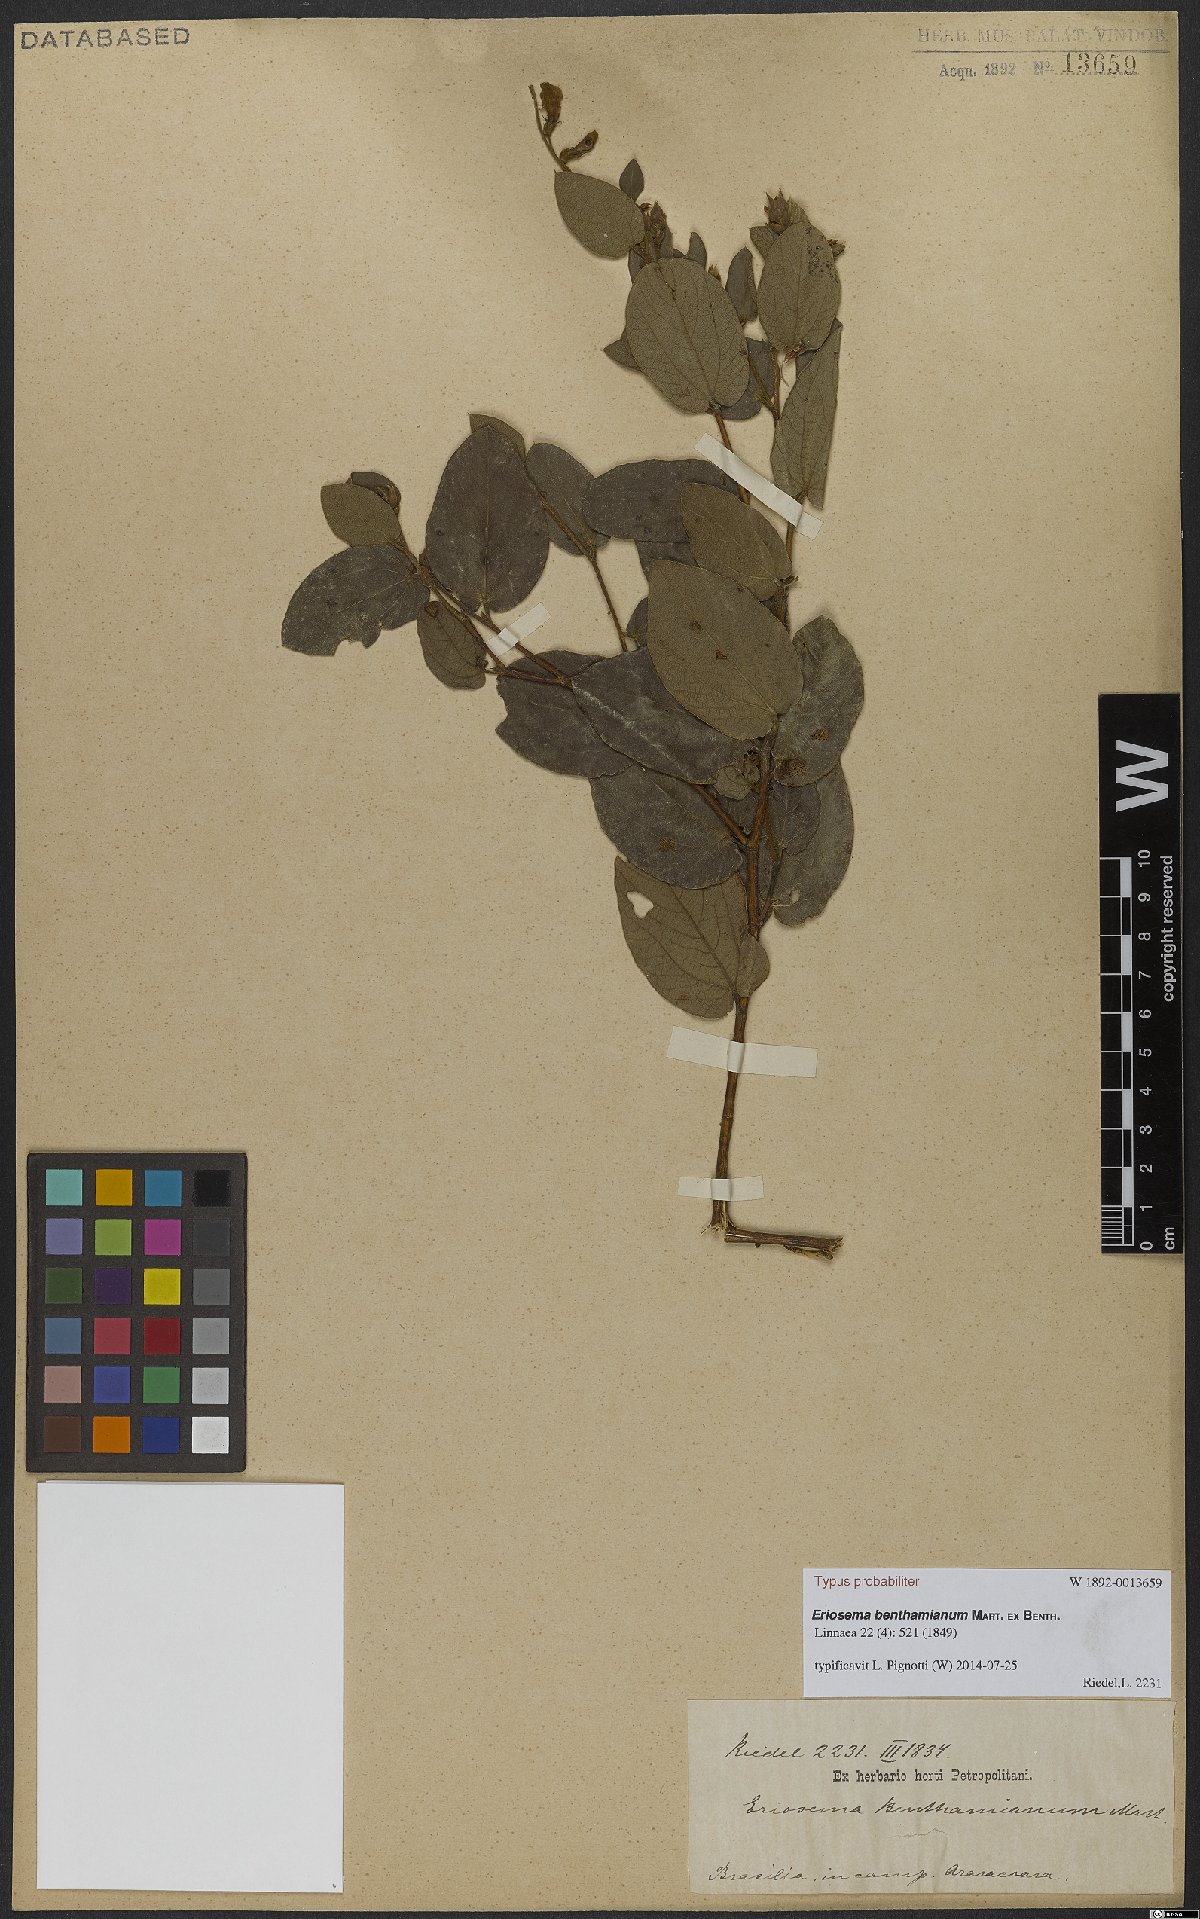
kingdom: Plantae
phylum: Tracheophyta
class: Magnoliopsida
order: Fabales
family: Fabaceae
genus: Eriosema
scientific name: Eriosema benthamianum
